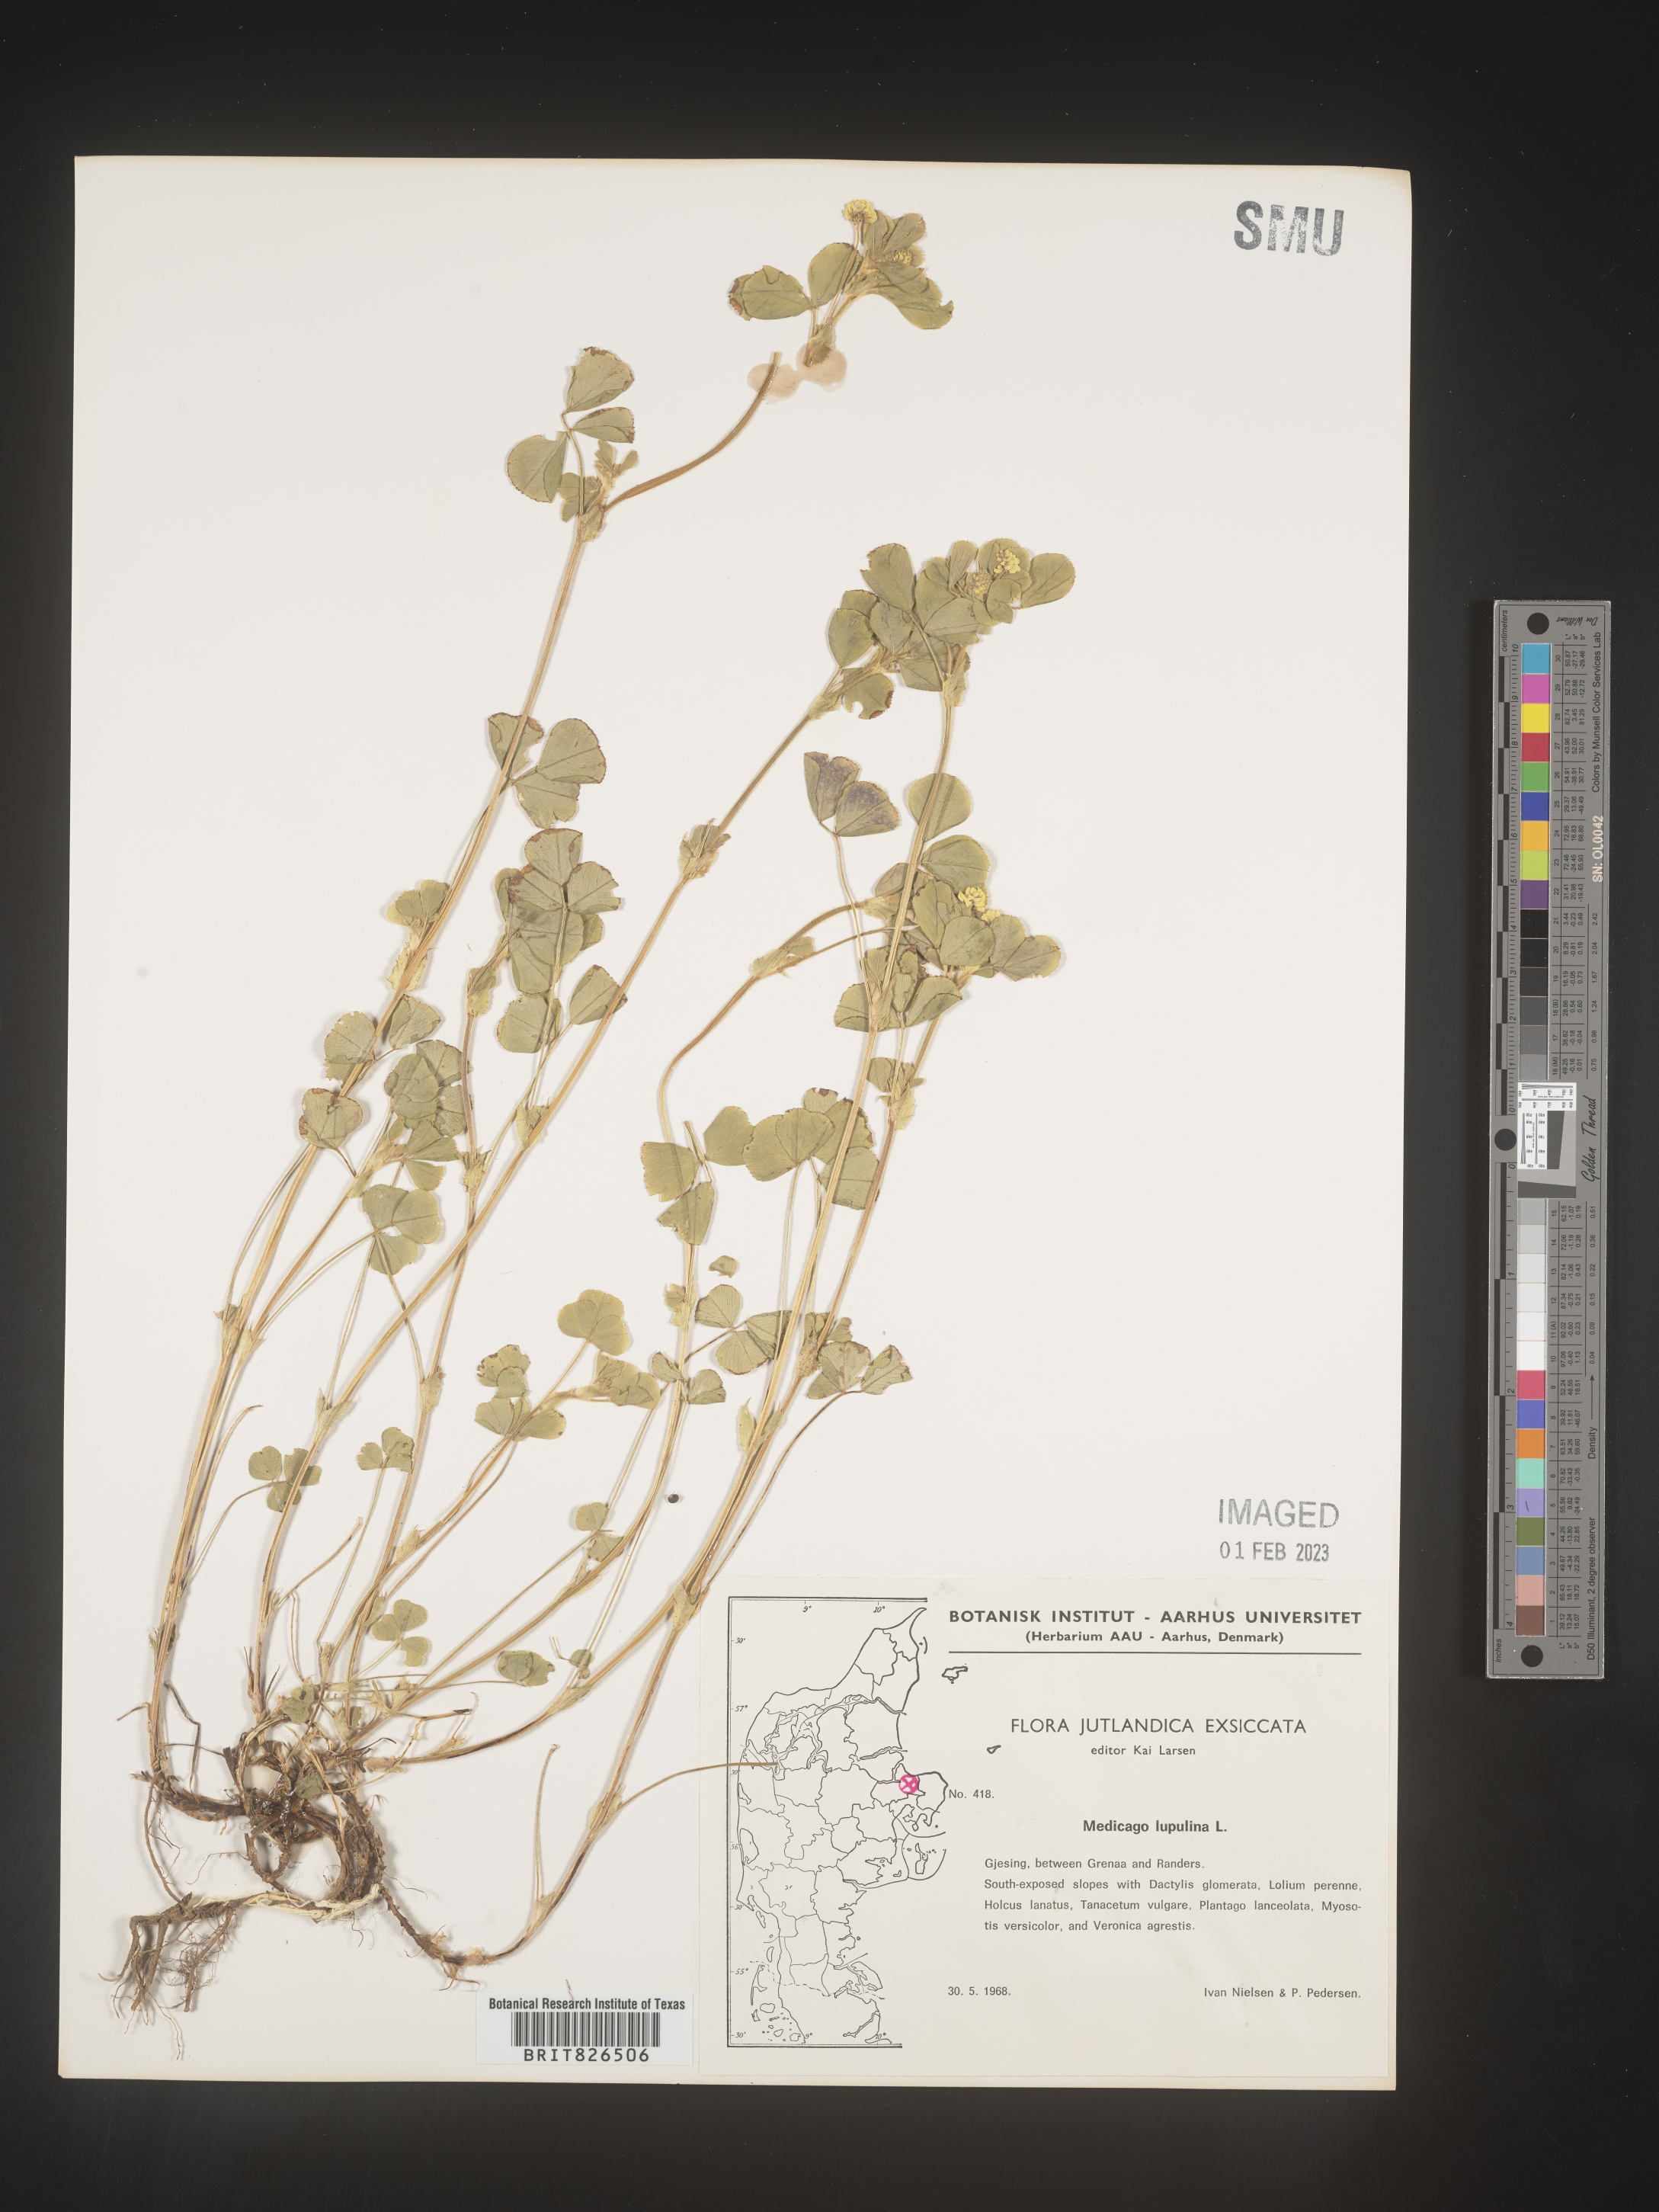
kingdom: Plantae
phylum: Tracheophyta
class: Magnoliopsida
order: Fabales
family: Fabaceae
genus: Medicago
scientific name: Medicago
